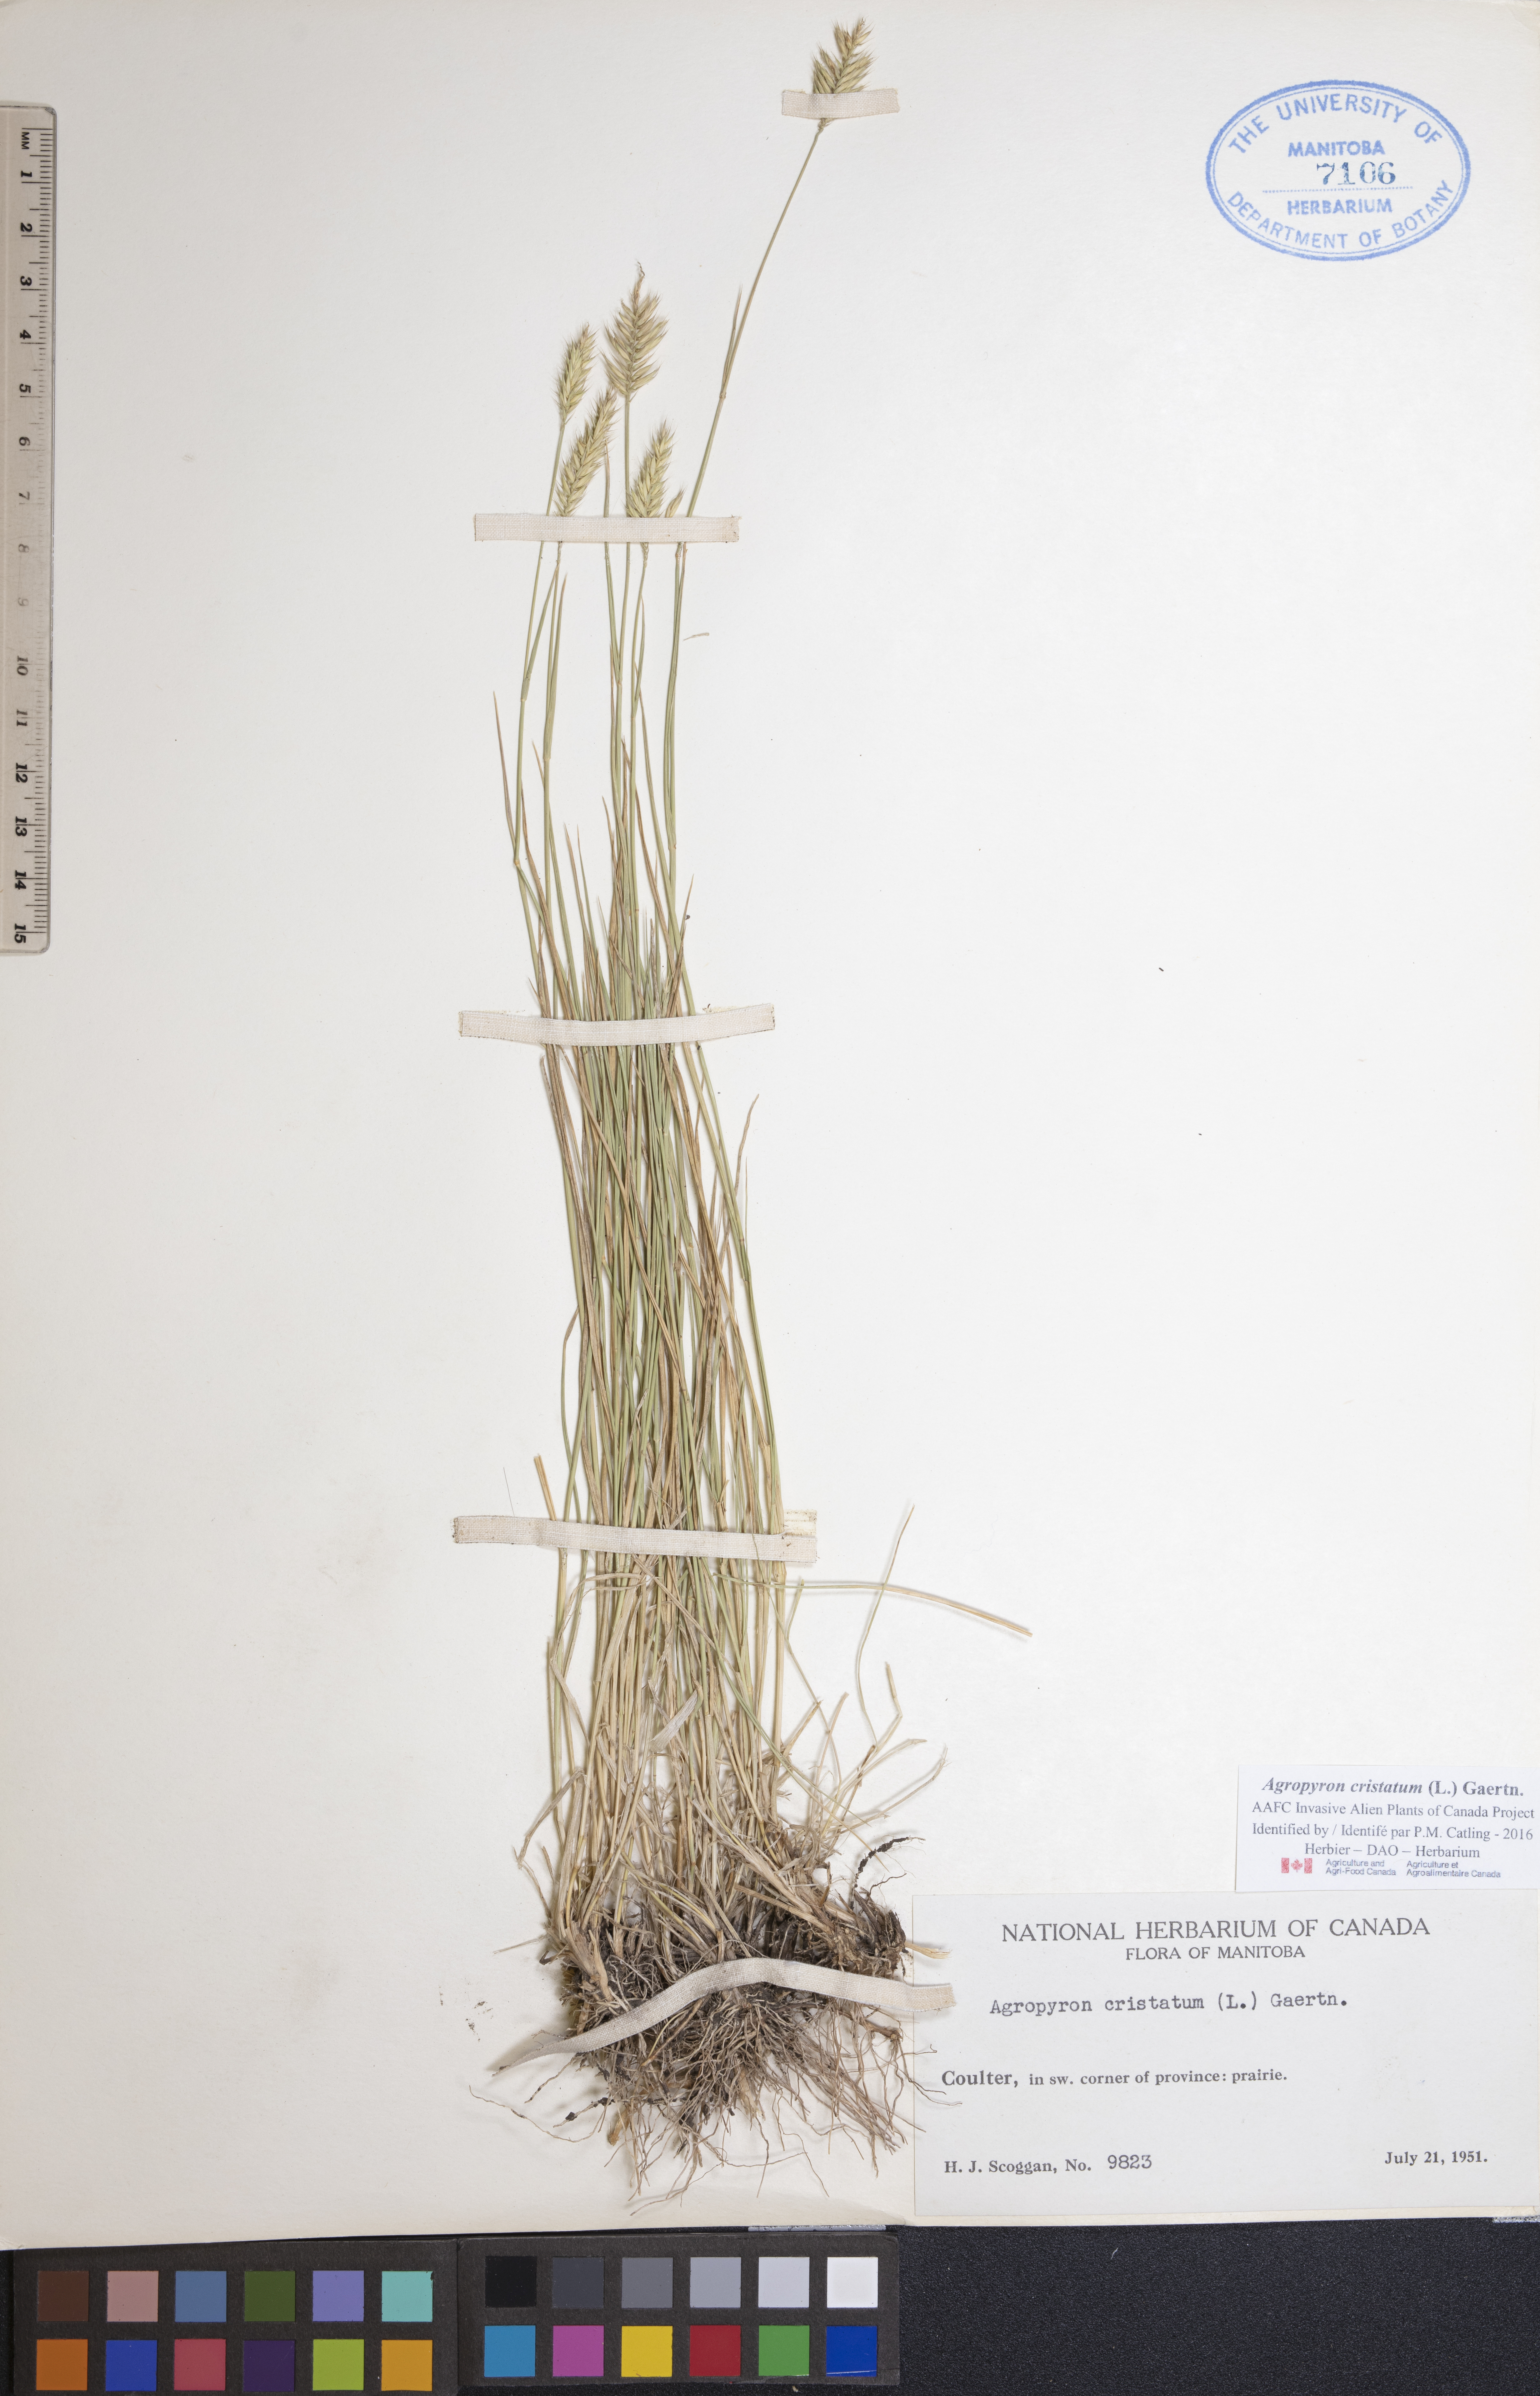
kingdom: Plantae
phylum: Tracheophyta
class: Liliopsida
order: Poales
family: Poaceae
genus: Agropyron
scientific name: Agropyron cristatum
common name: Crested wheatgrass
